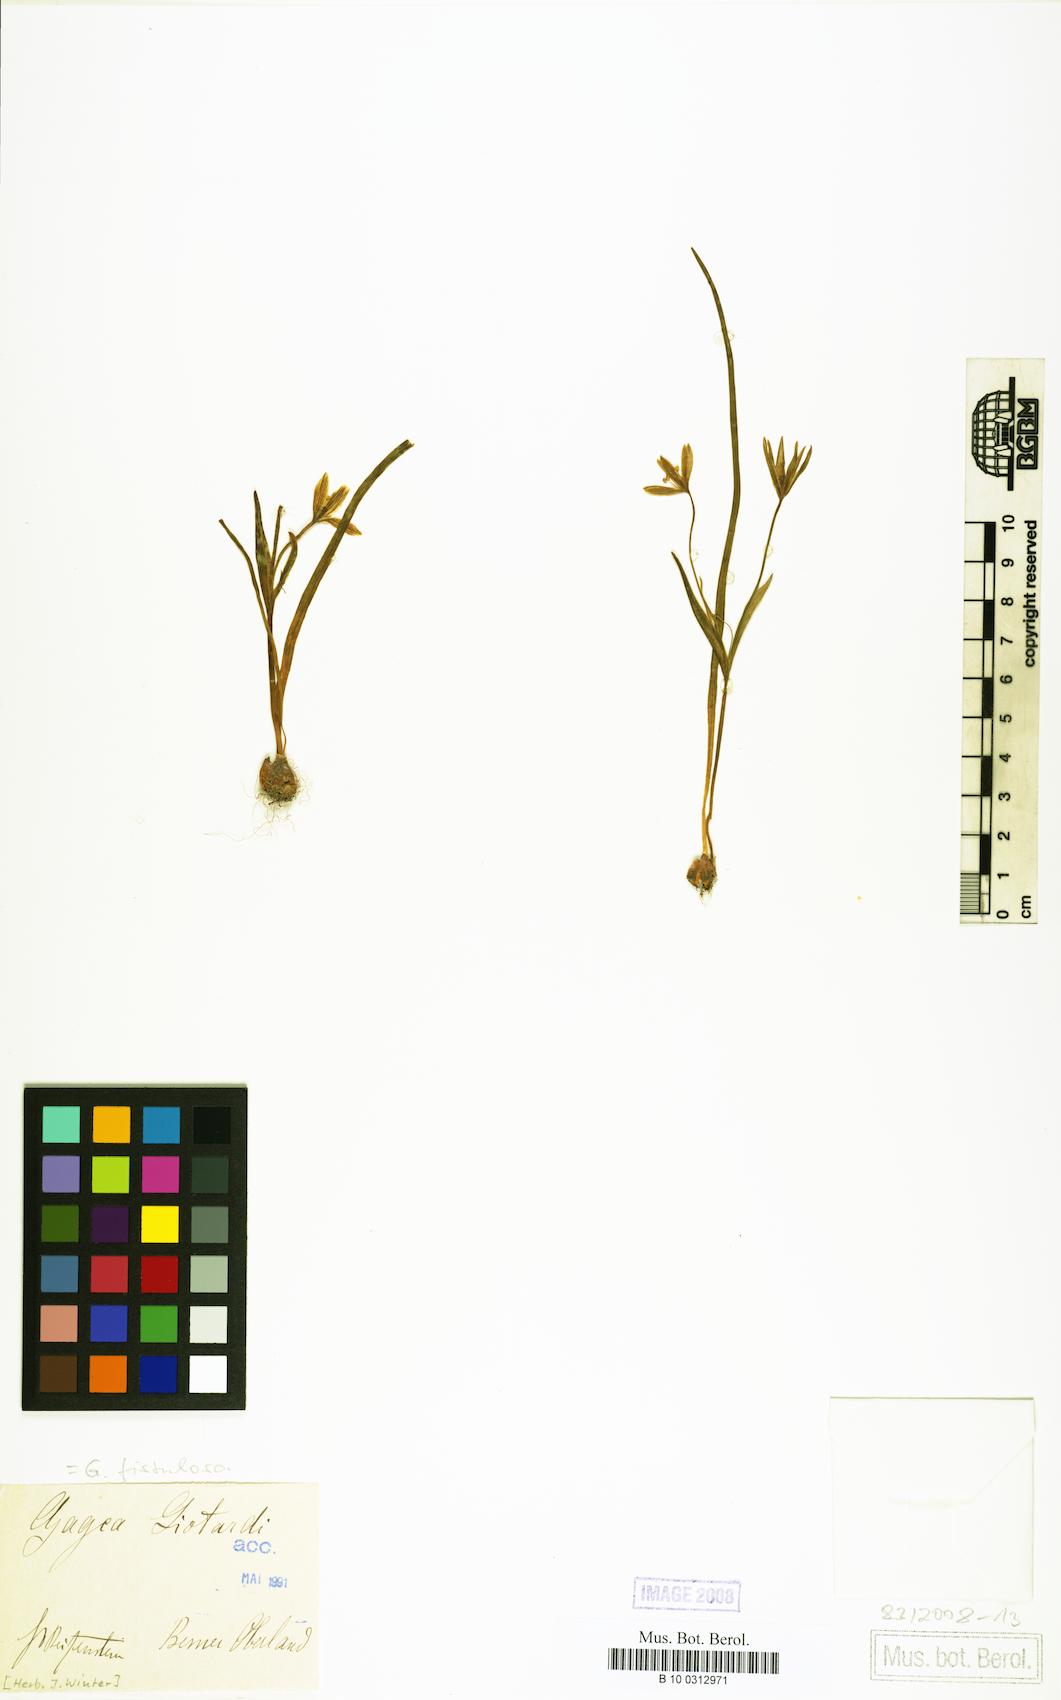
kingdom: Plantae
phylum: Tracheophyta
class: Liliopsida
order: Liliales
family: Liliaceae
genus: Gagea
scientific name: Gagea
